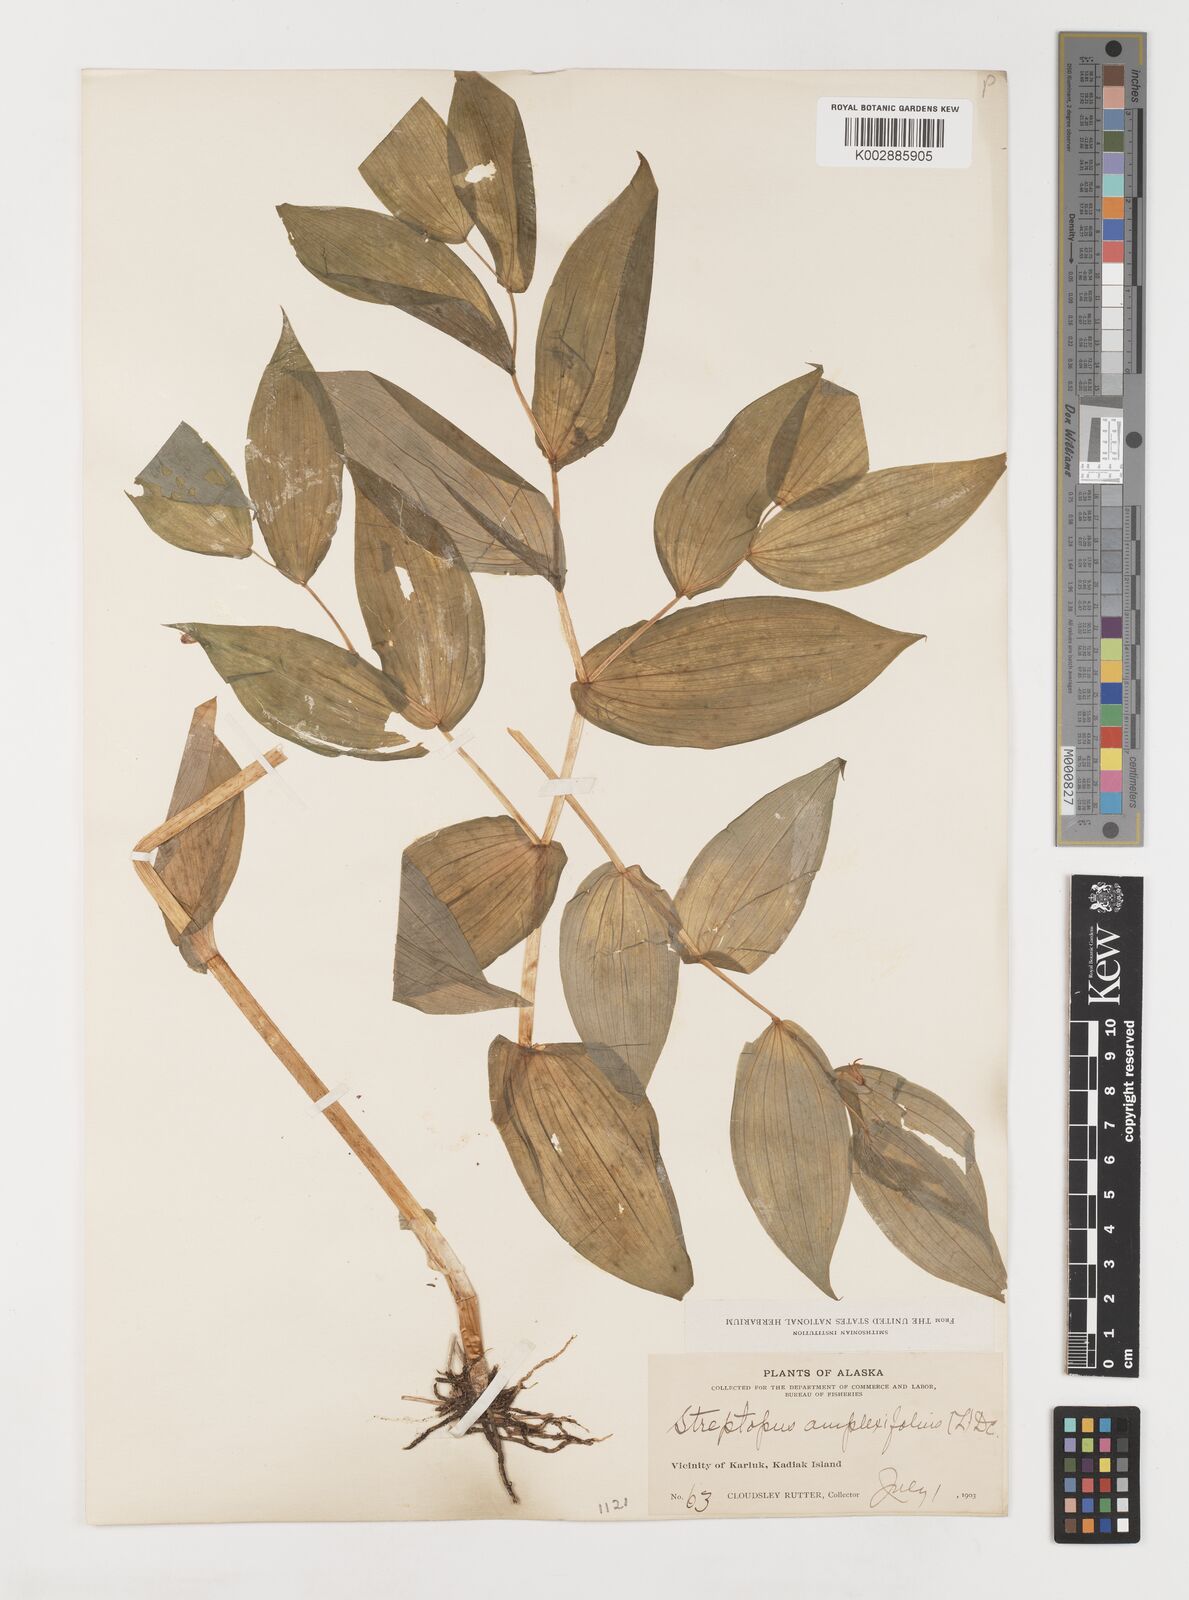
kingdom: Plantae
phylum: Tracheophyta
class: Liliopsida
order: Liliales
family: Liliaceae
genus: Streptopus
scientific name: Streptopus amplexifolius
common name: Clasp twisted stalk
